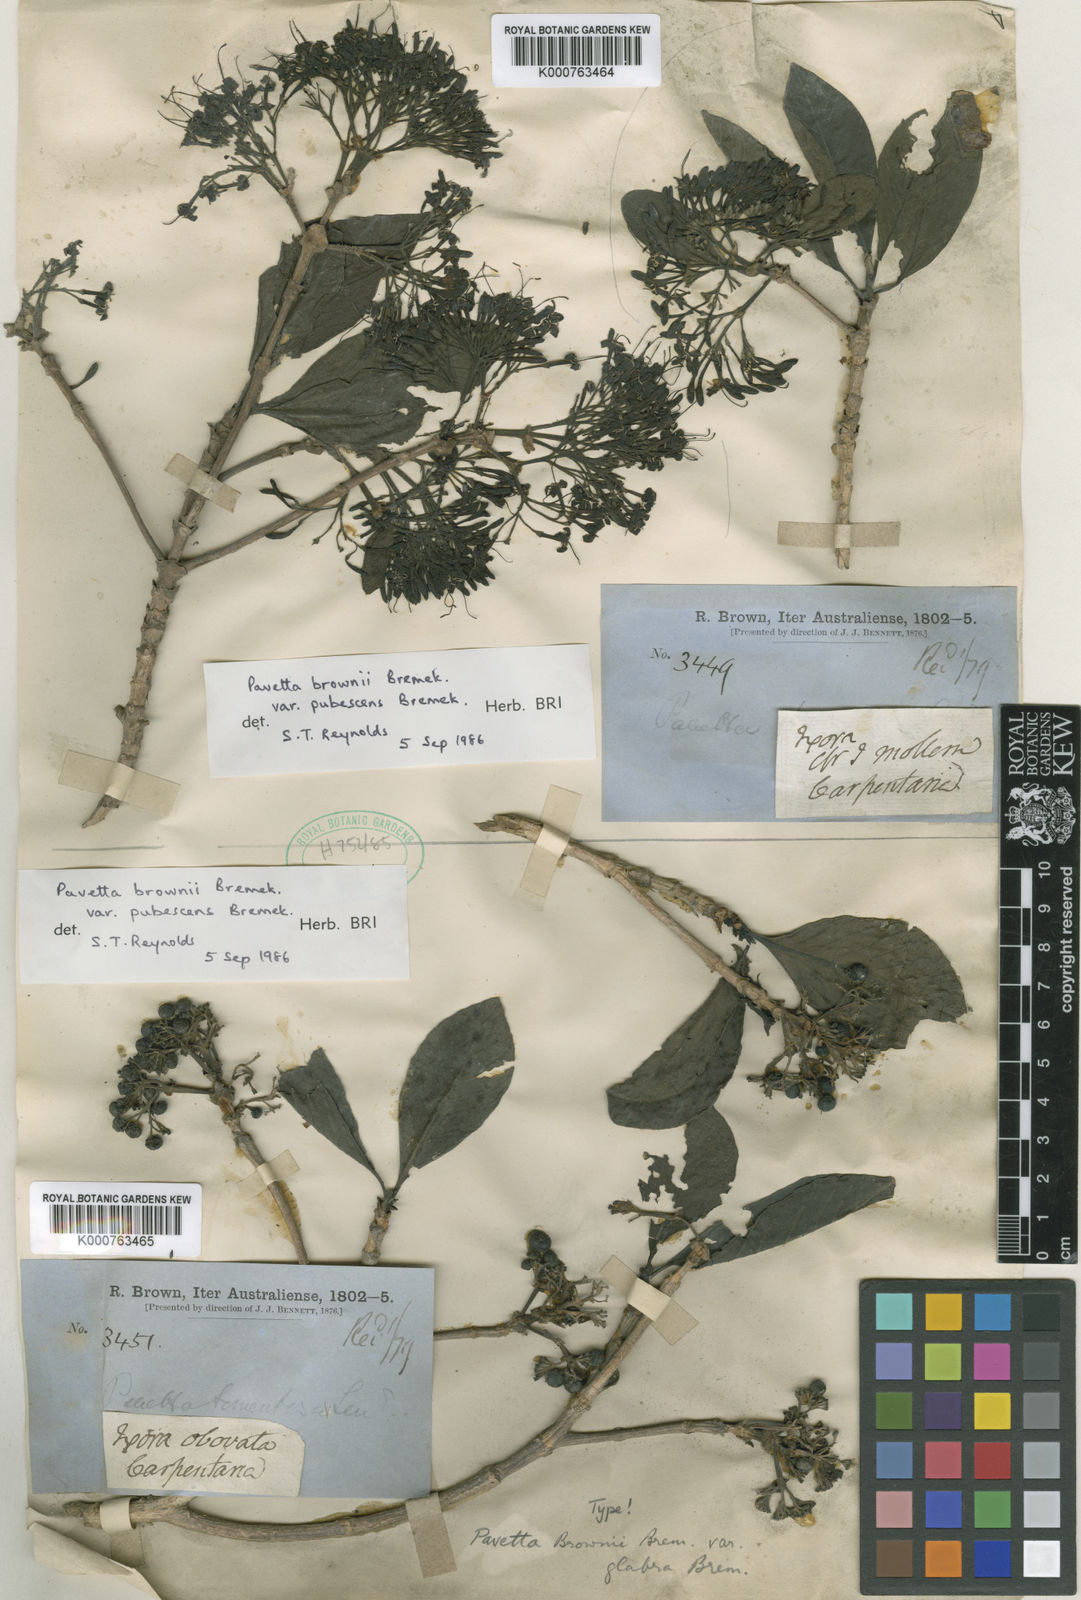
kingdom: Plantae
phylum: Tracheophyta
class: Magnoliopsida
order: Gentianales
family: Rubiaceae
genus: Pavetta
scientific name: Pavetta brownii
